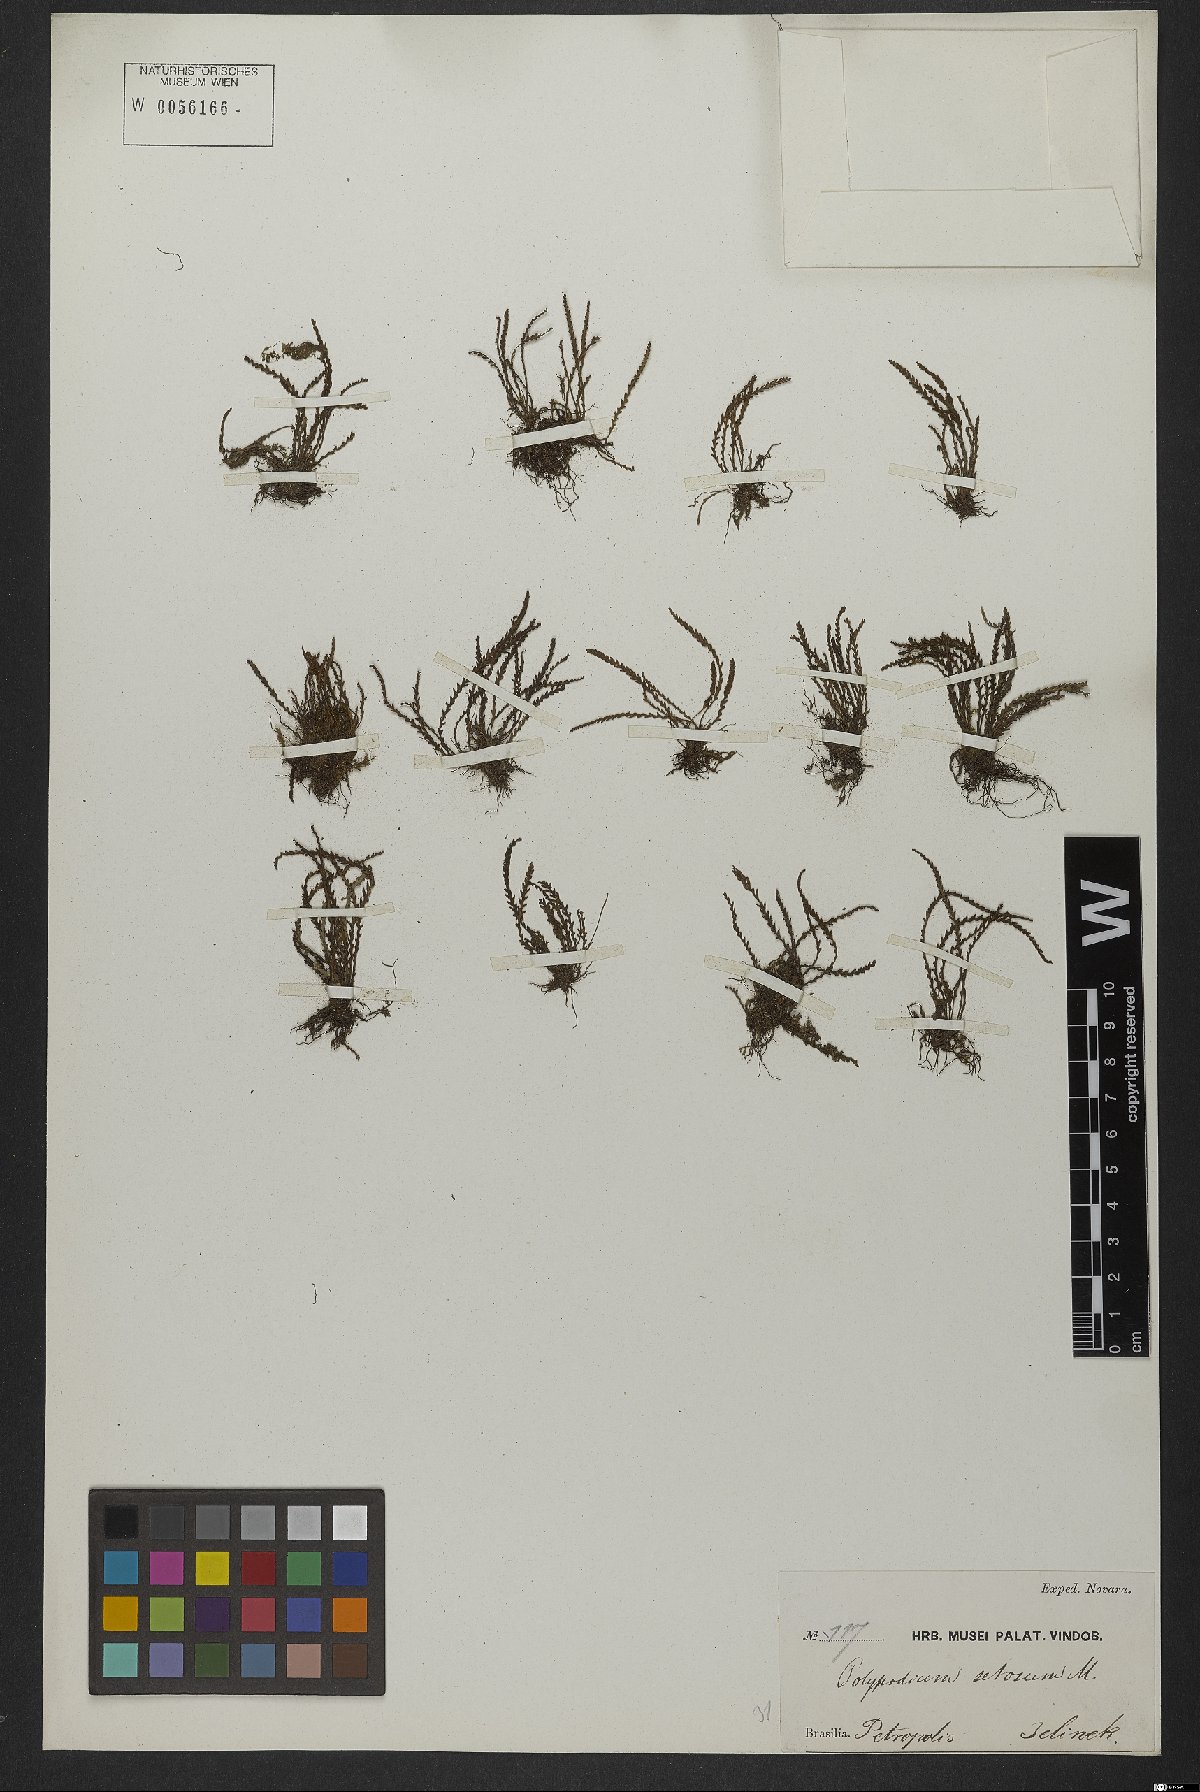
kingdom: Plantae
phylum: Tracheophyta
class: Polypodiopsida
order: Polypodiales
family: Polypodiaceae
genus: Leptochilus
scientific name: Leptochilus pteropus
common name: Java fern
